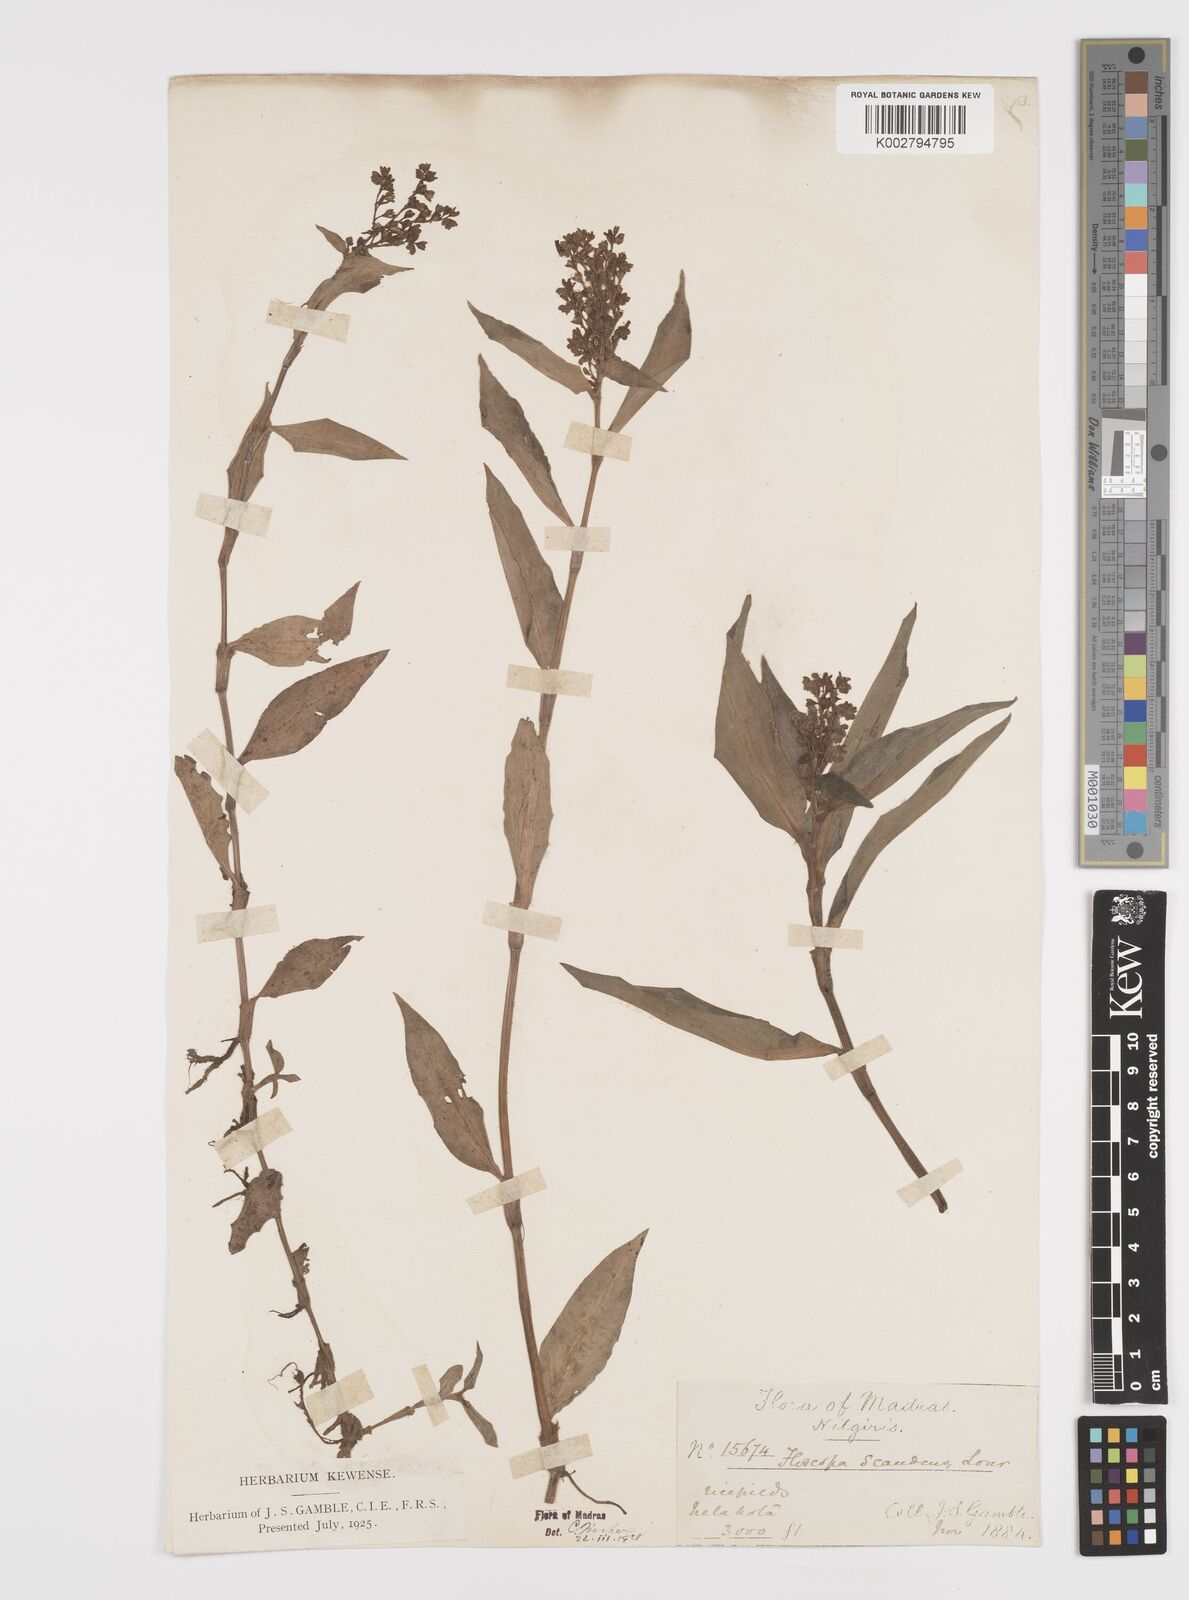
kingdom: Plantae
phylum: Tracheophyta
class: Liliopsida
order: Commelinales
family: Commelinaceae
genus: Floscopa
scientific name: Floscopa scandens
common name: Climbing flower cup
